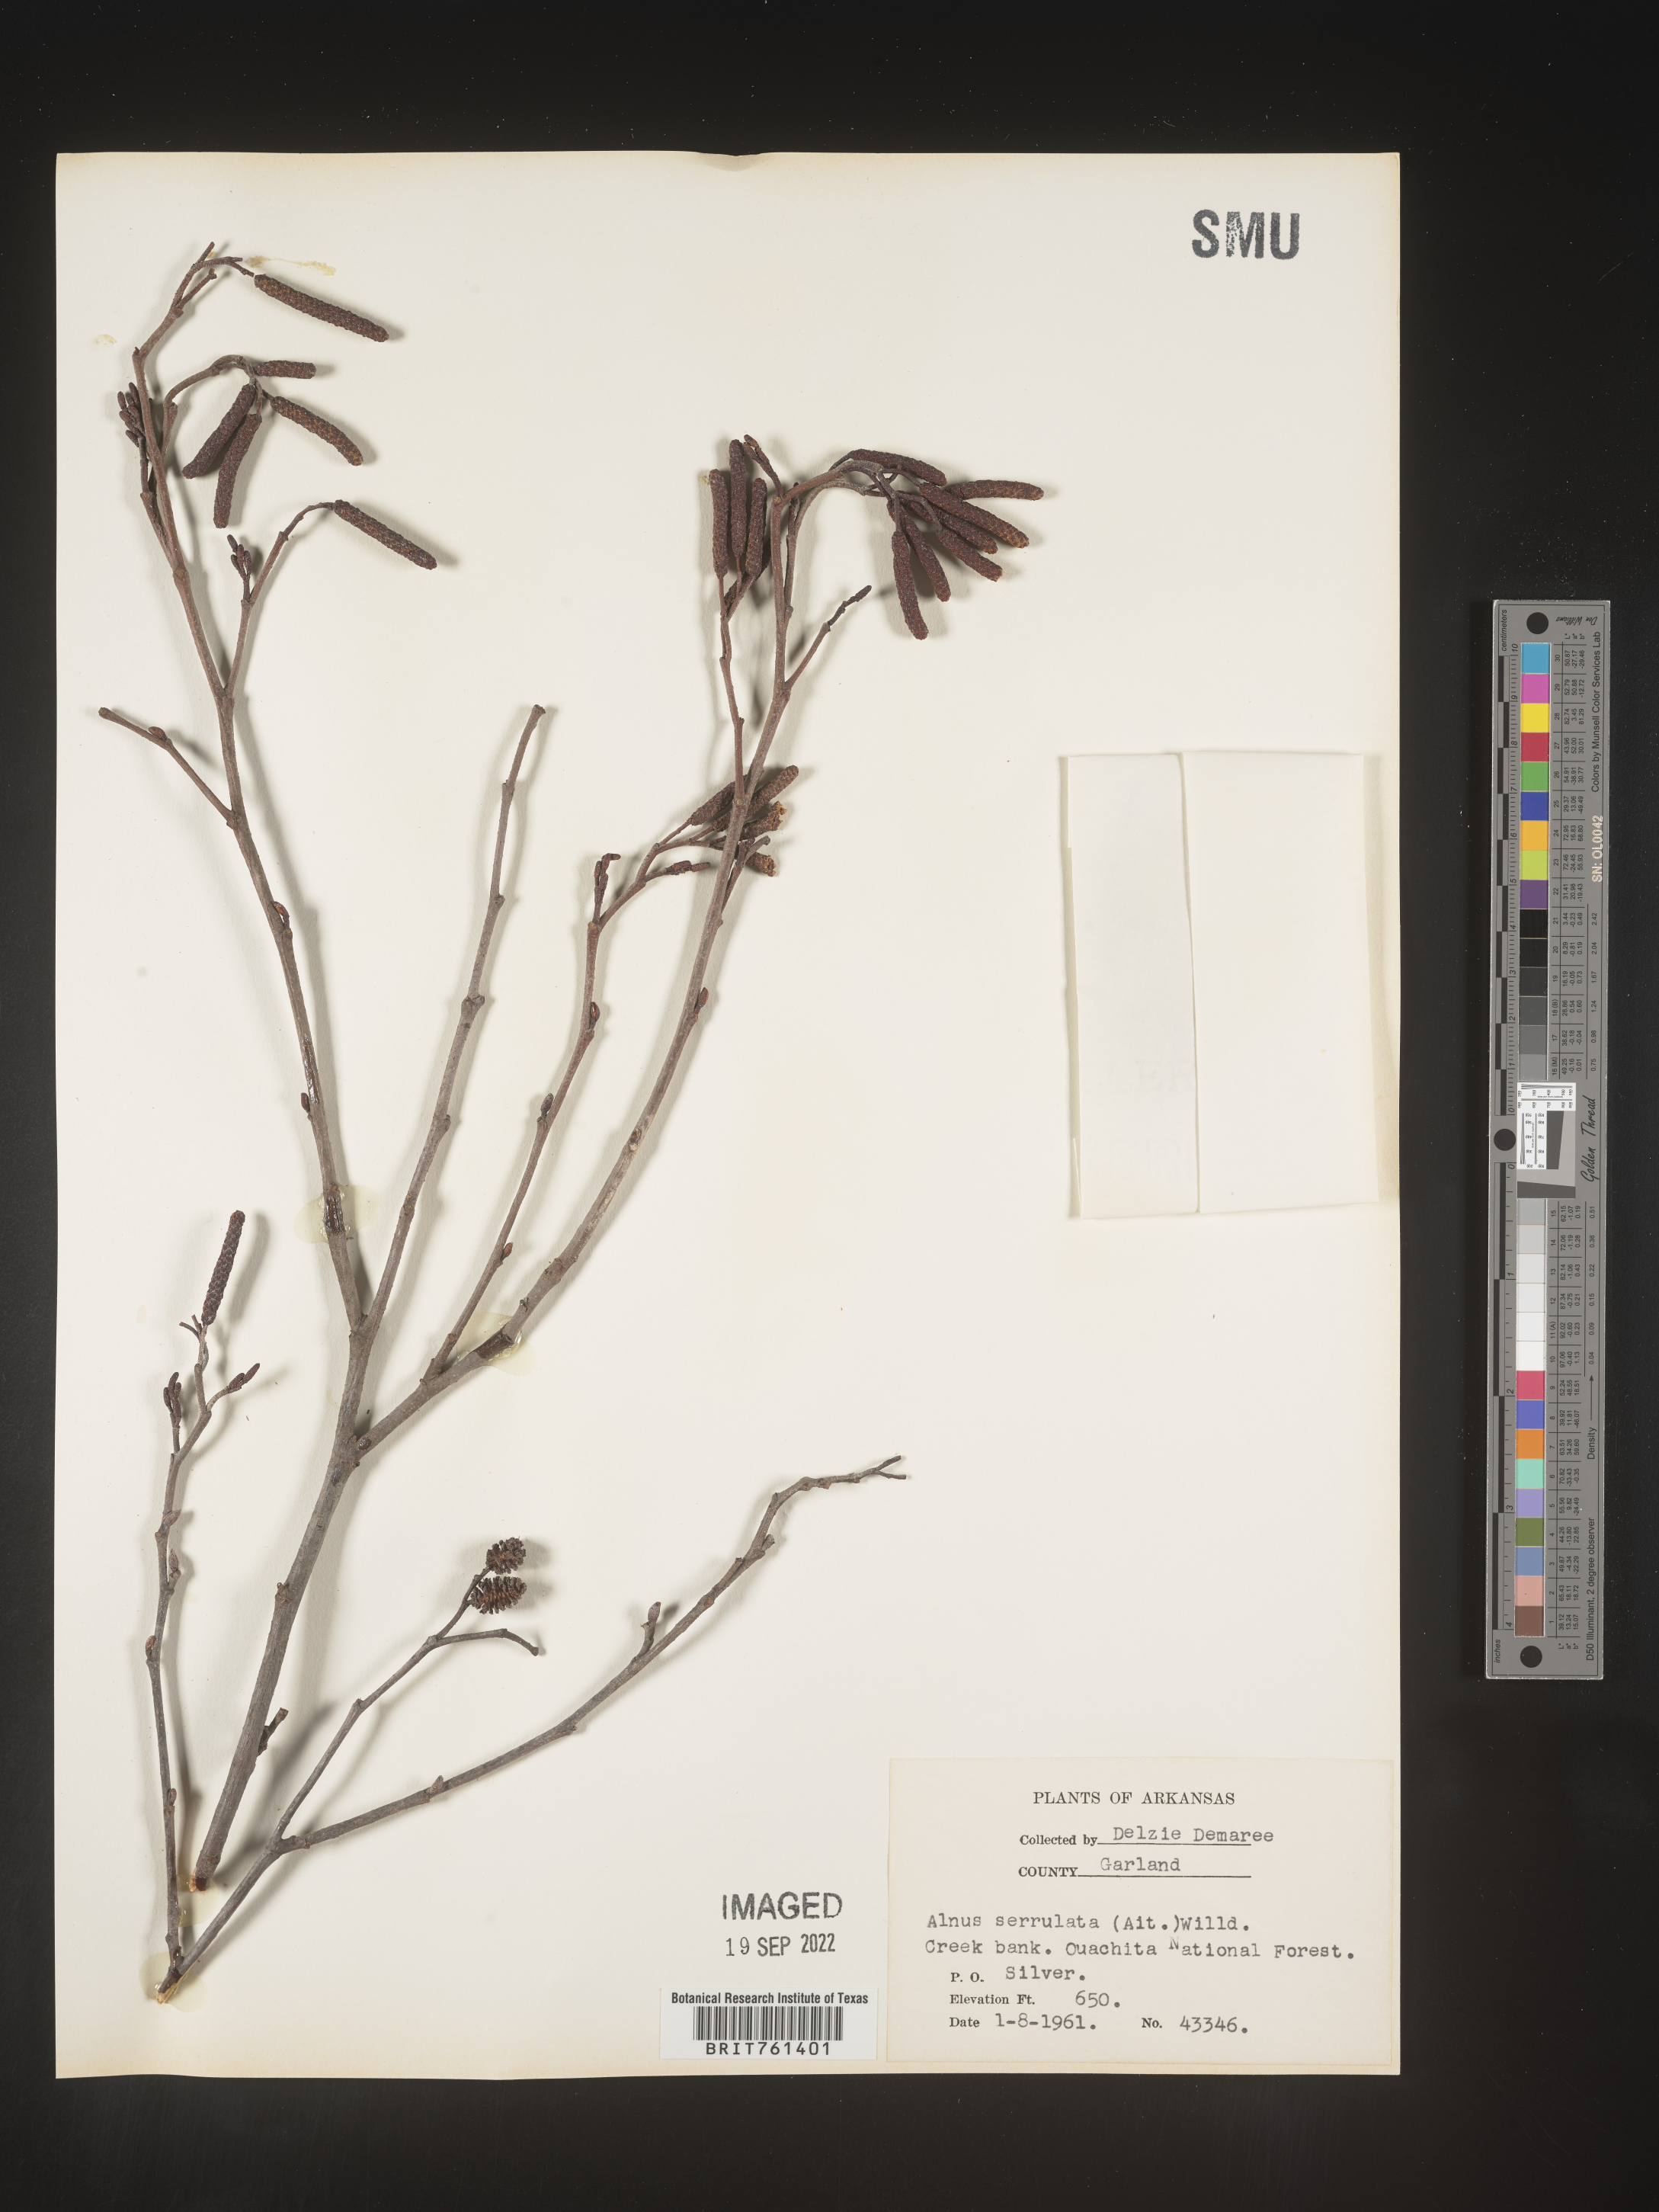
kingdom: Plantae
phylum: Tracheophyta
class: Magnoliopsida
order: Fagales
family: Betulaceae
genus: Alnus
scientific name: Alnus serrulata
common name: Hazel alder
